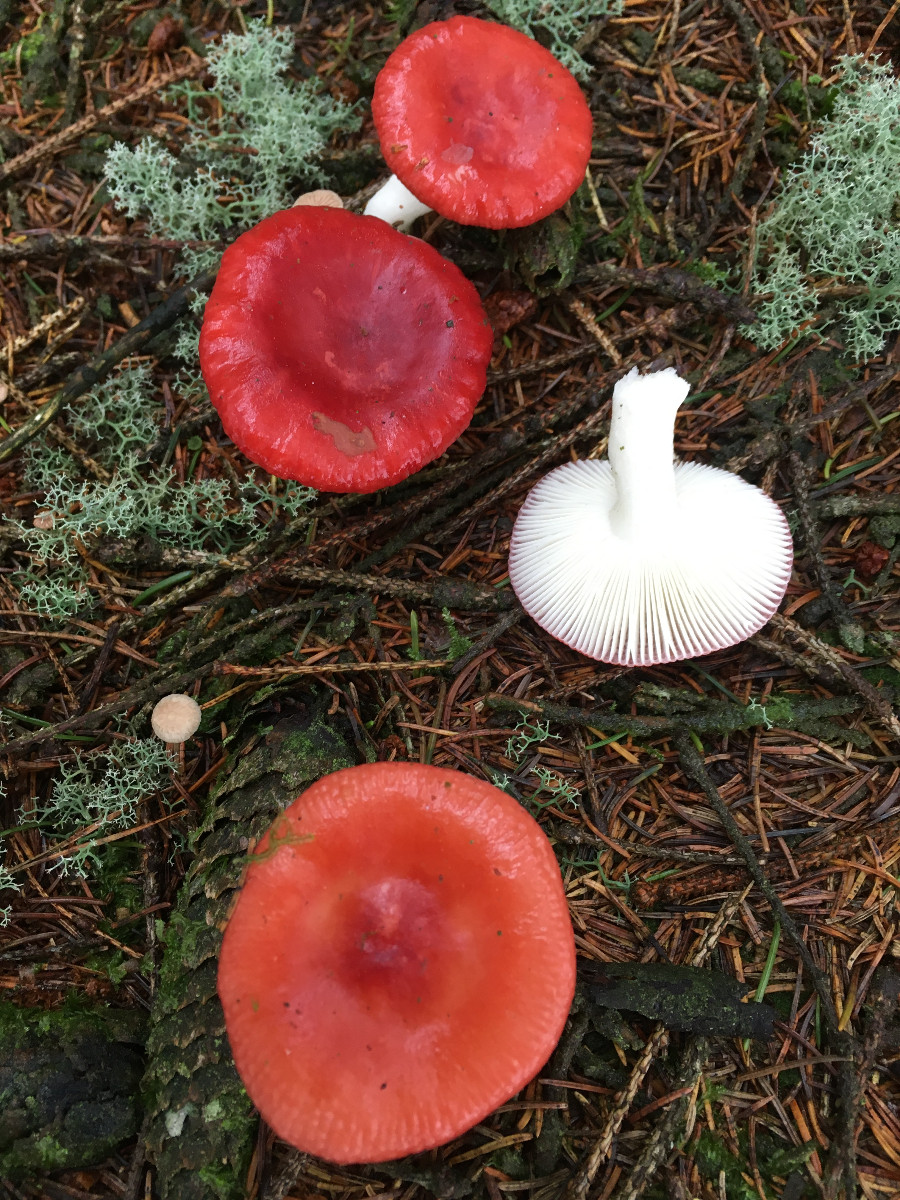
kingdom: Fungi
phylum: Basidiomycota
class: Agaricomycetes
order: Russulales
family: Russulaceae
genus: Russula
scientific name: Russula emetica
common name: stor gift-skørhat
